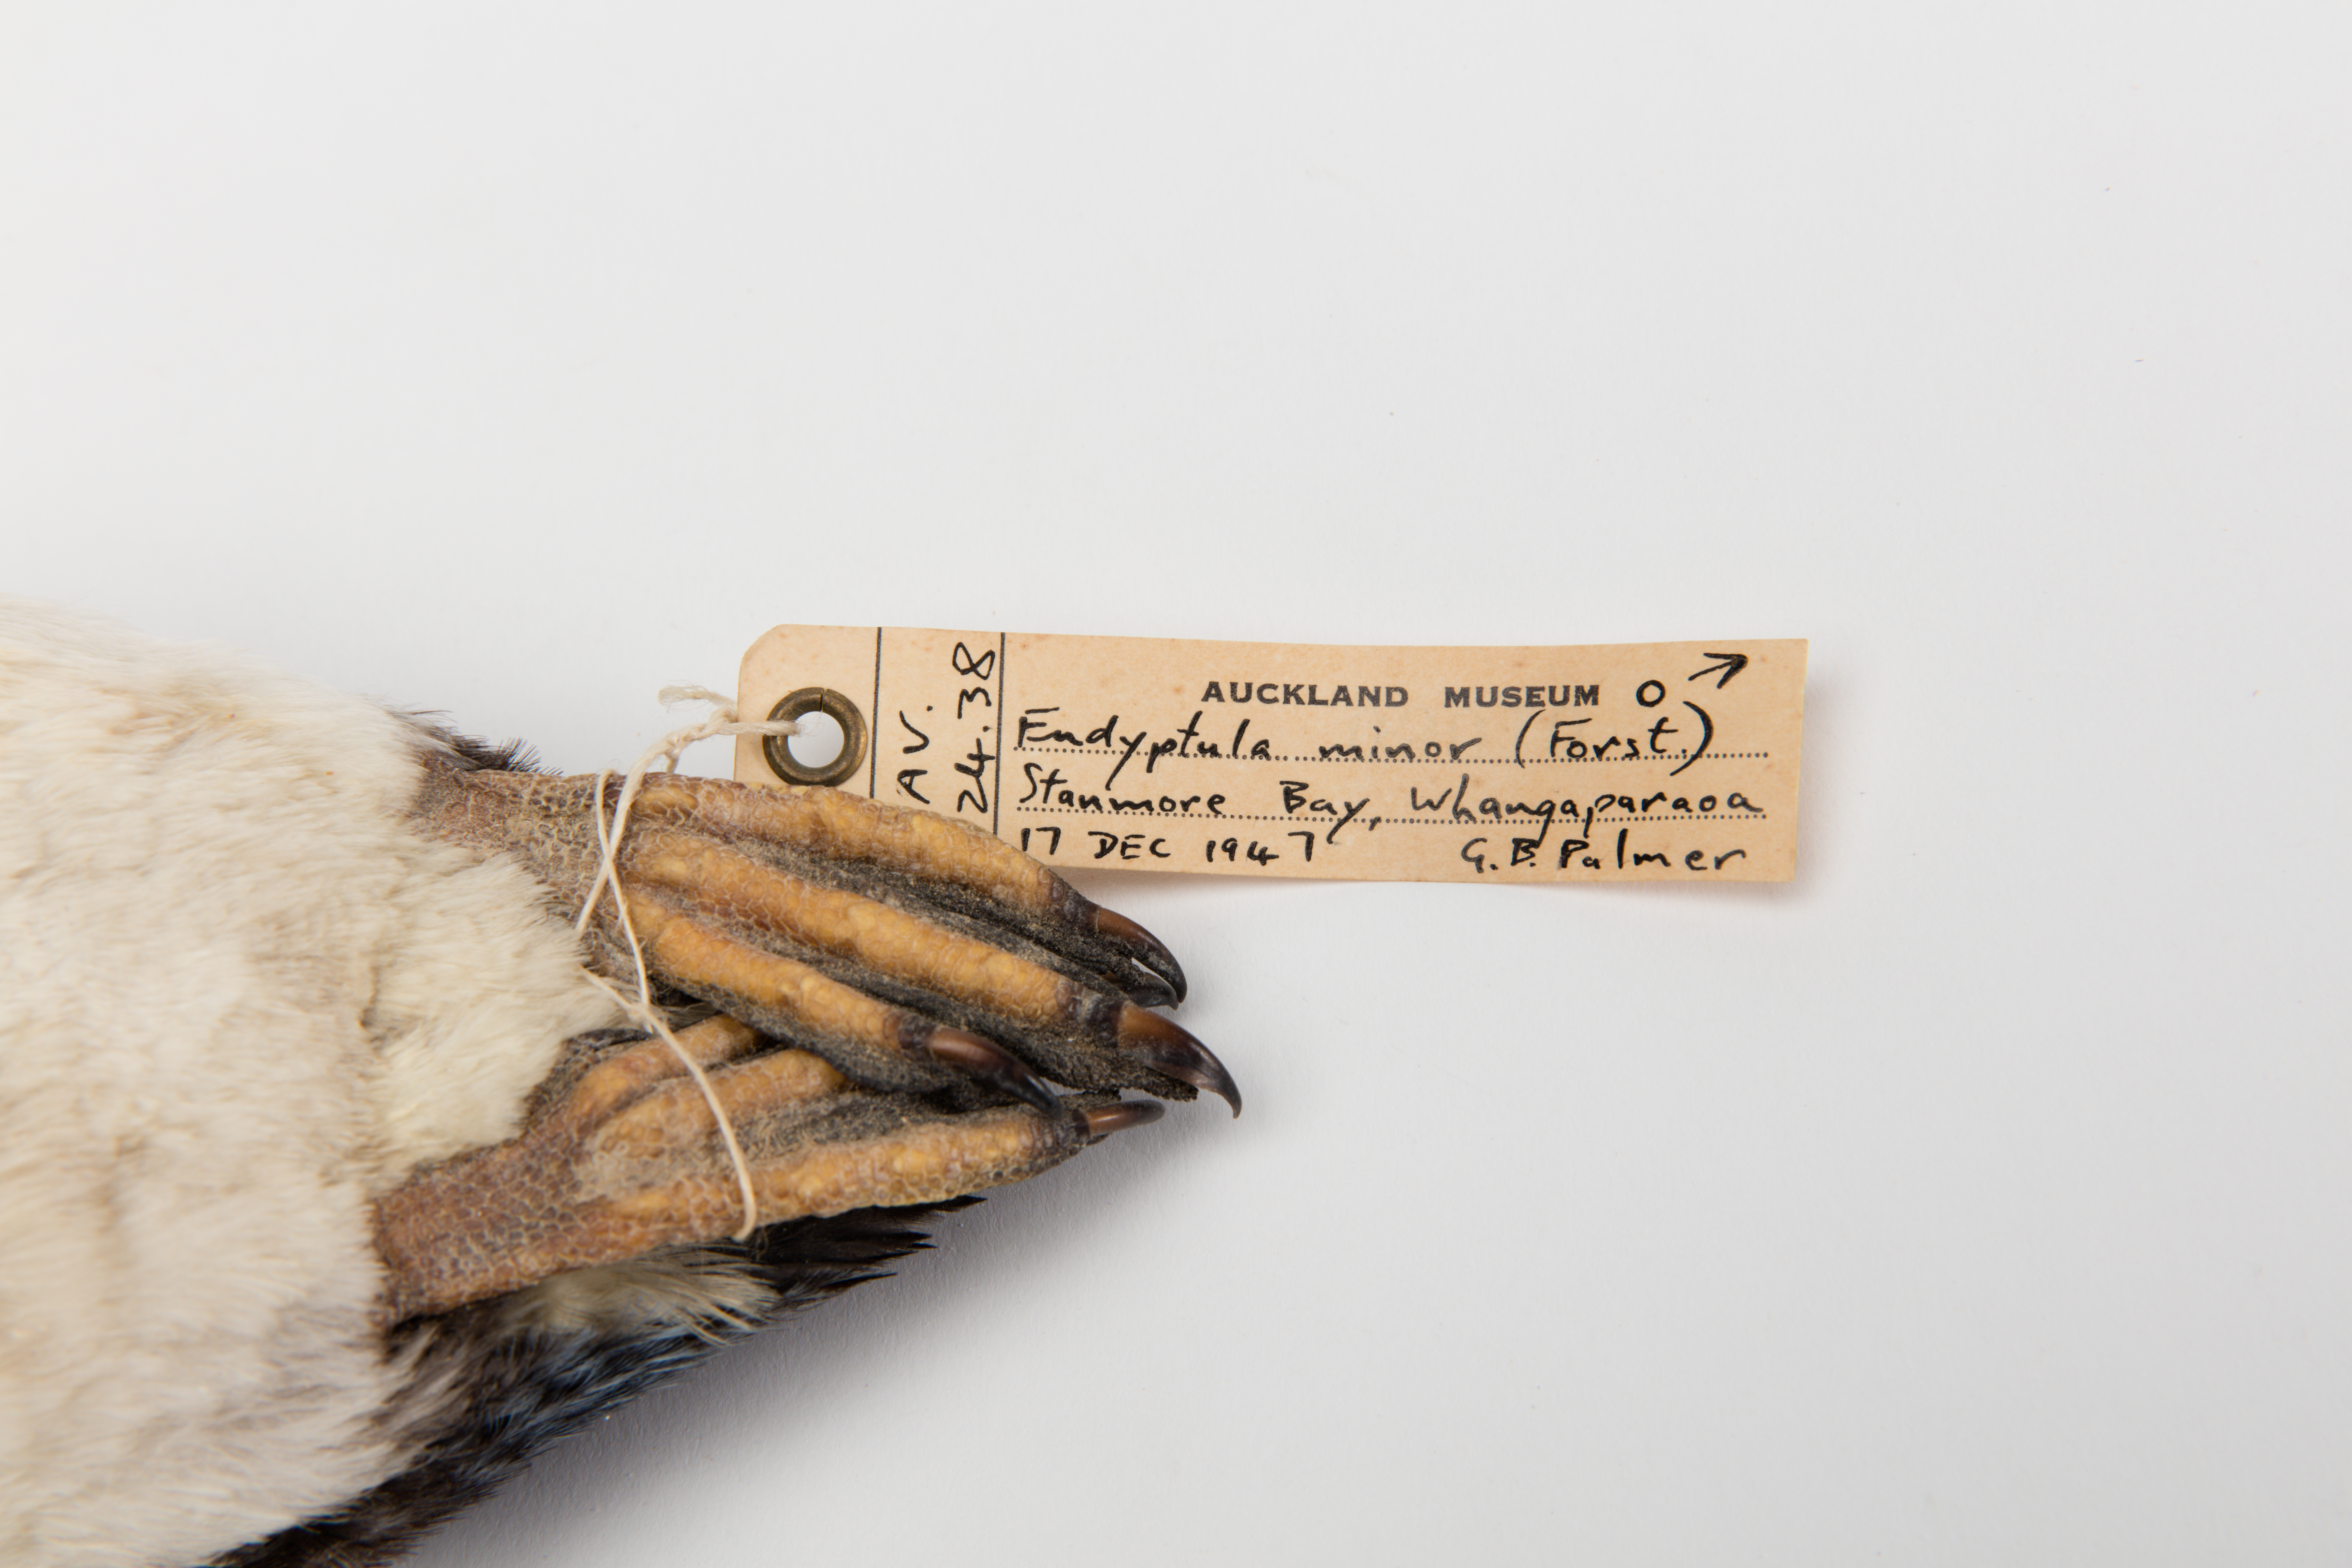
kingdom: Animalia
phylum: Chordata
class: Aves
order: Sphenisciformes
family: Spheniscidae
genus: Eudyptula
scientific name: Eudyptula minor
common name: Little penguin
